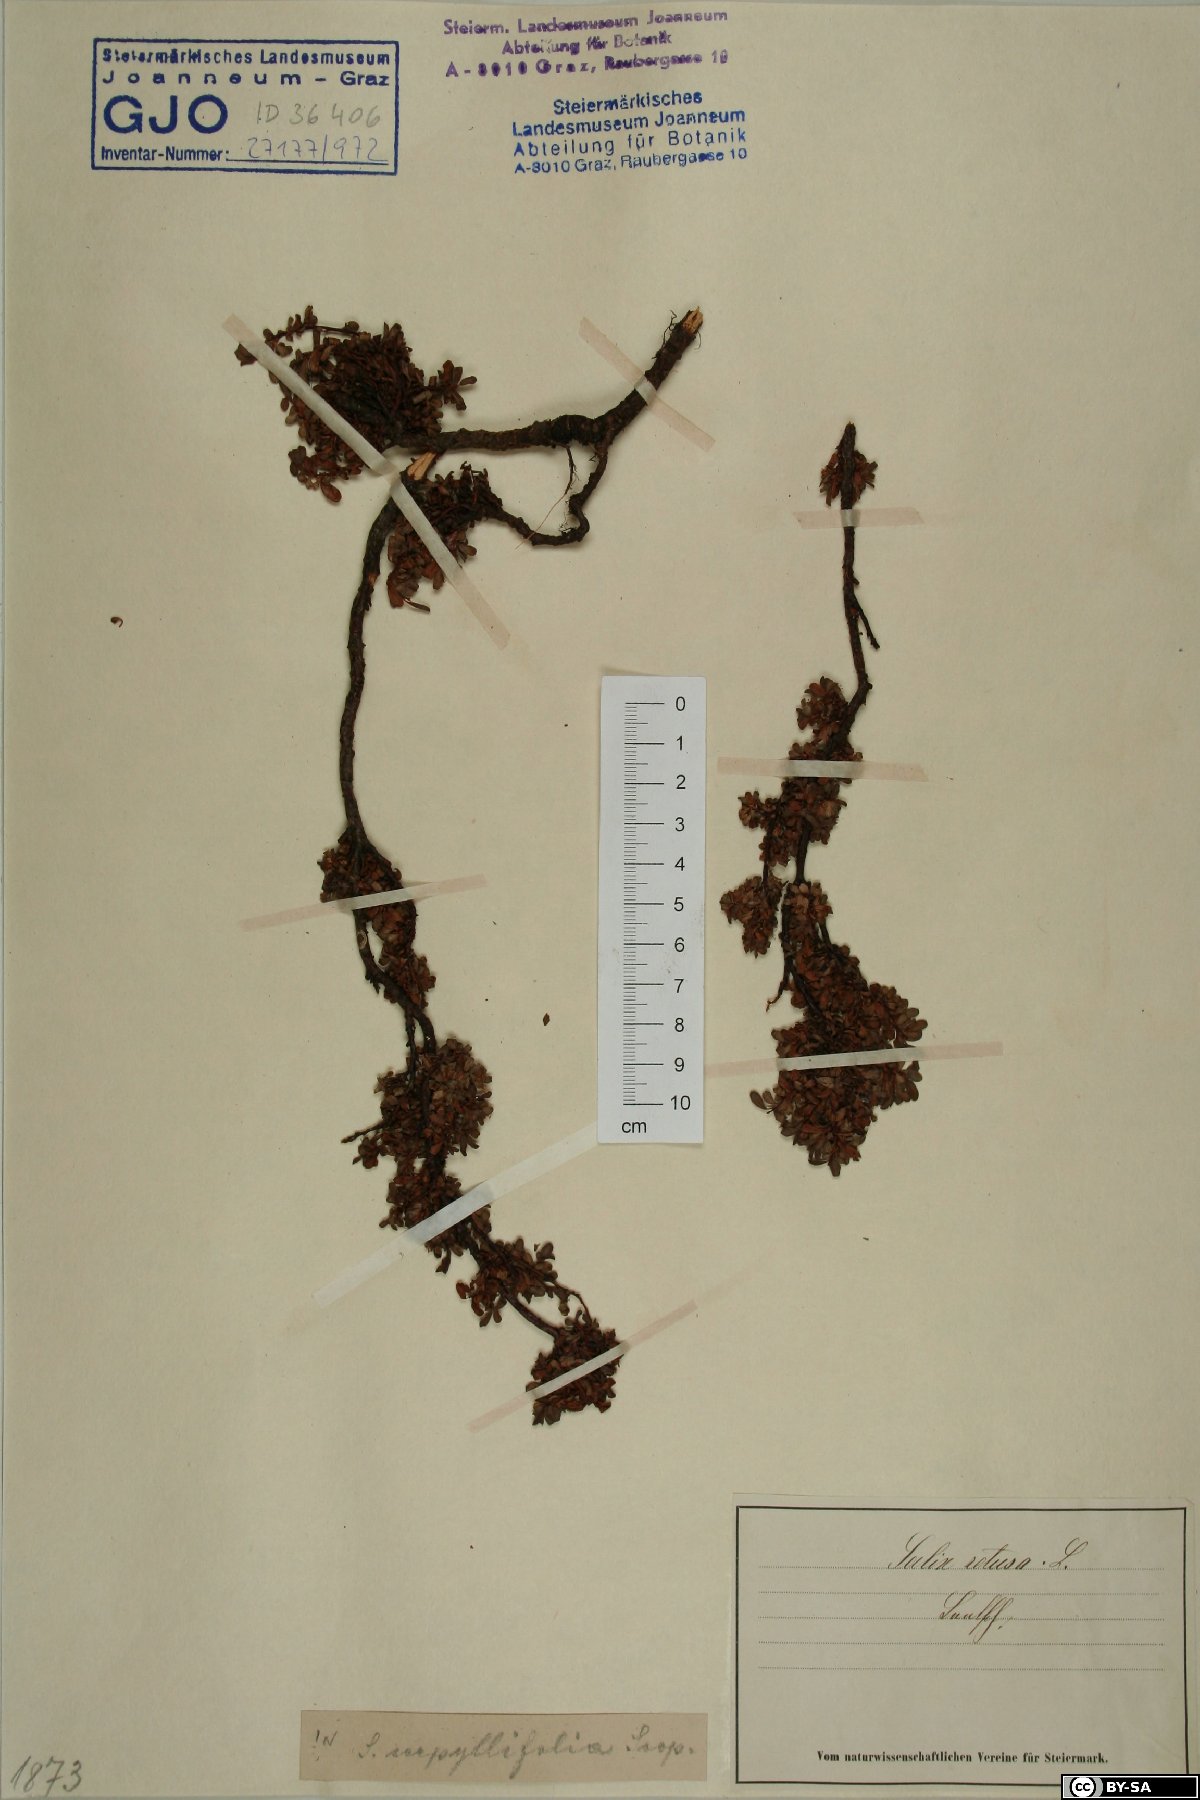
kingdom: Plantae
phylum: Tracheophyta
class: Magnoliopsida
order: Malpighiales
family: Salicaceae
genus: Salix
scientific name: Salix serpillifolia
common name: Thyme-leaf willow
